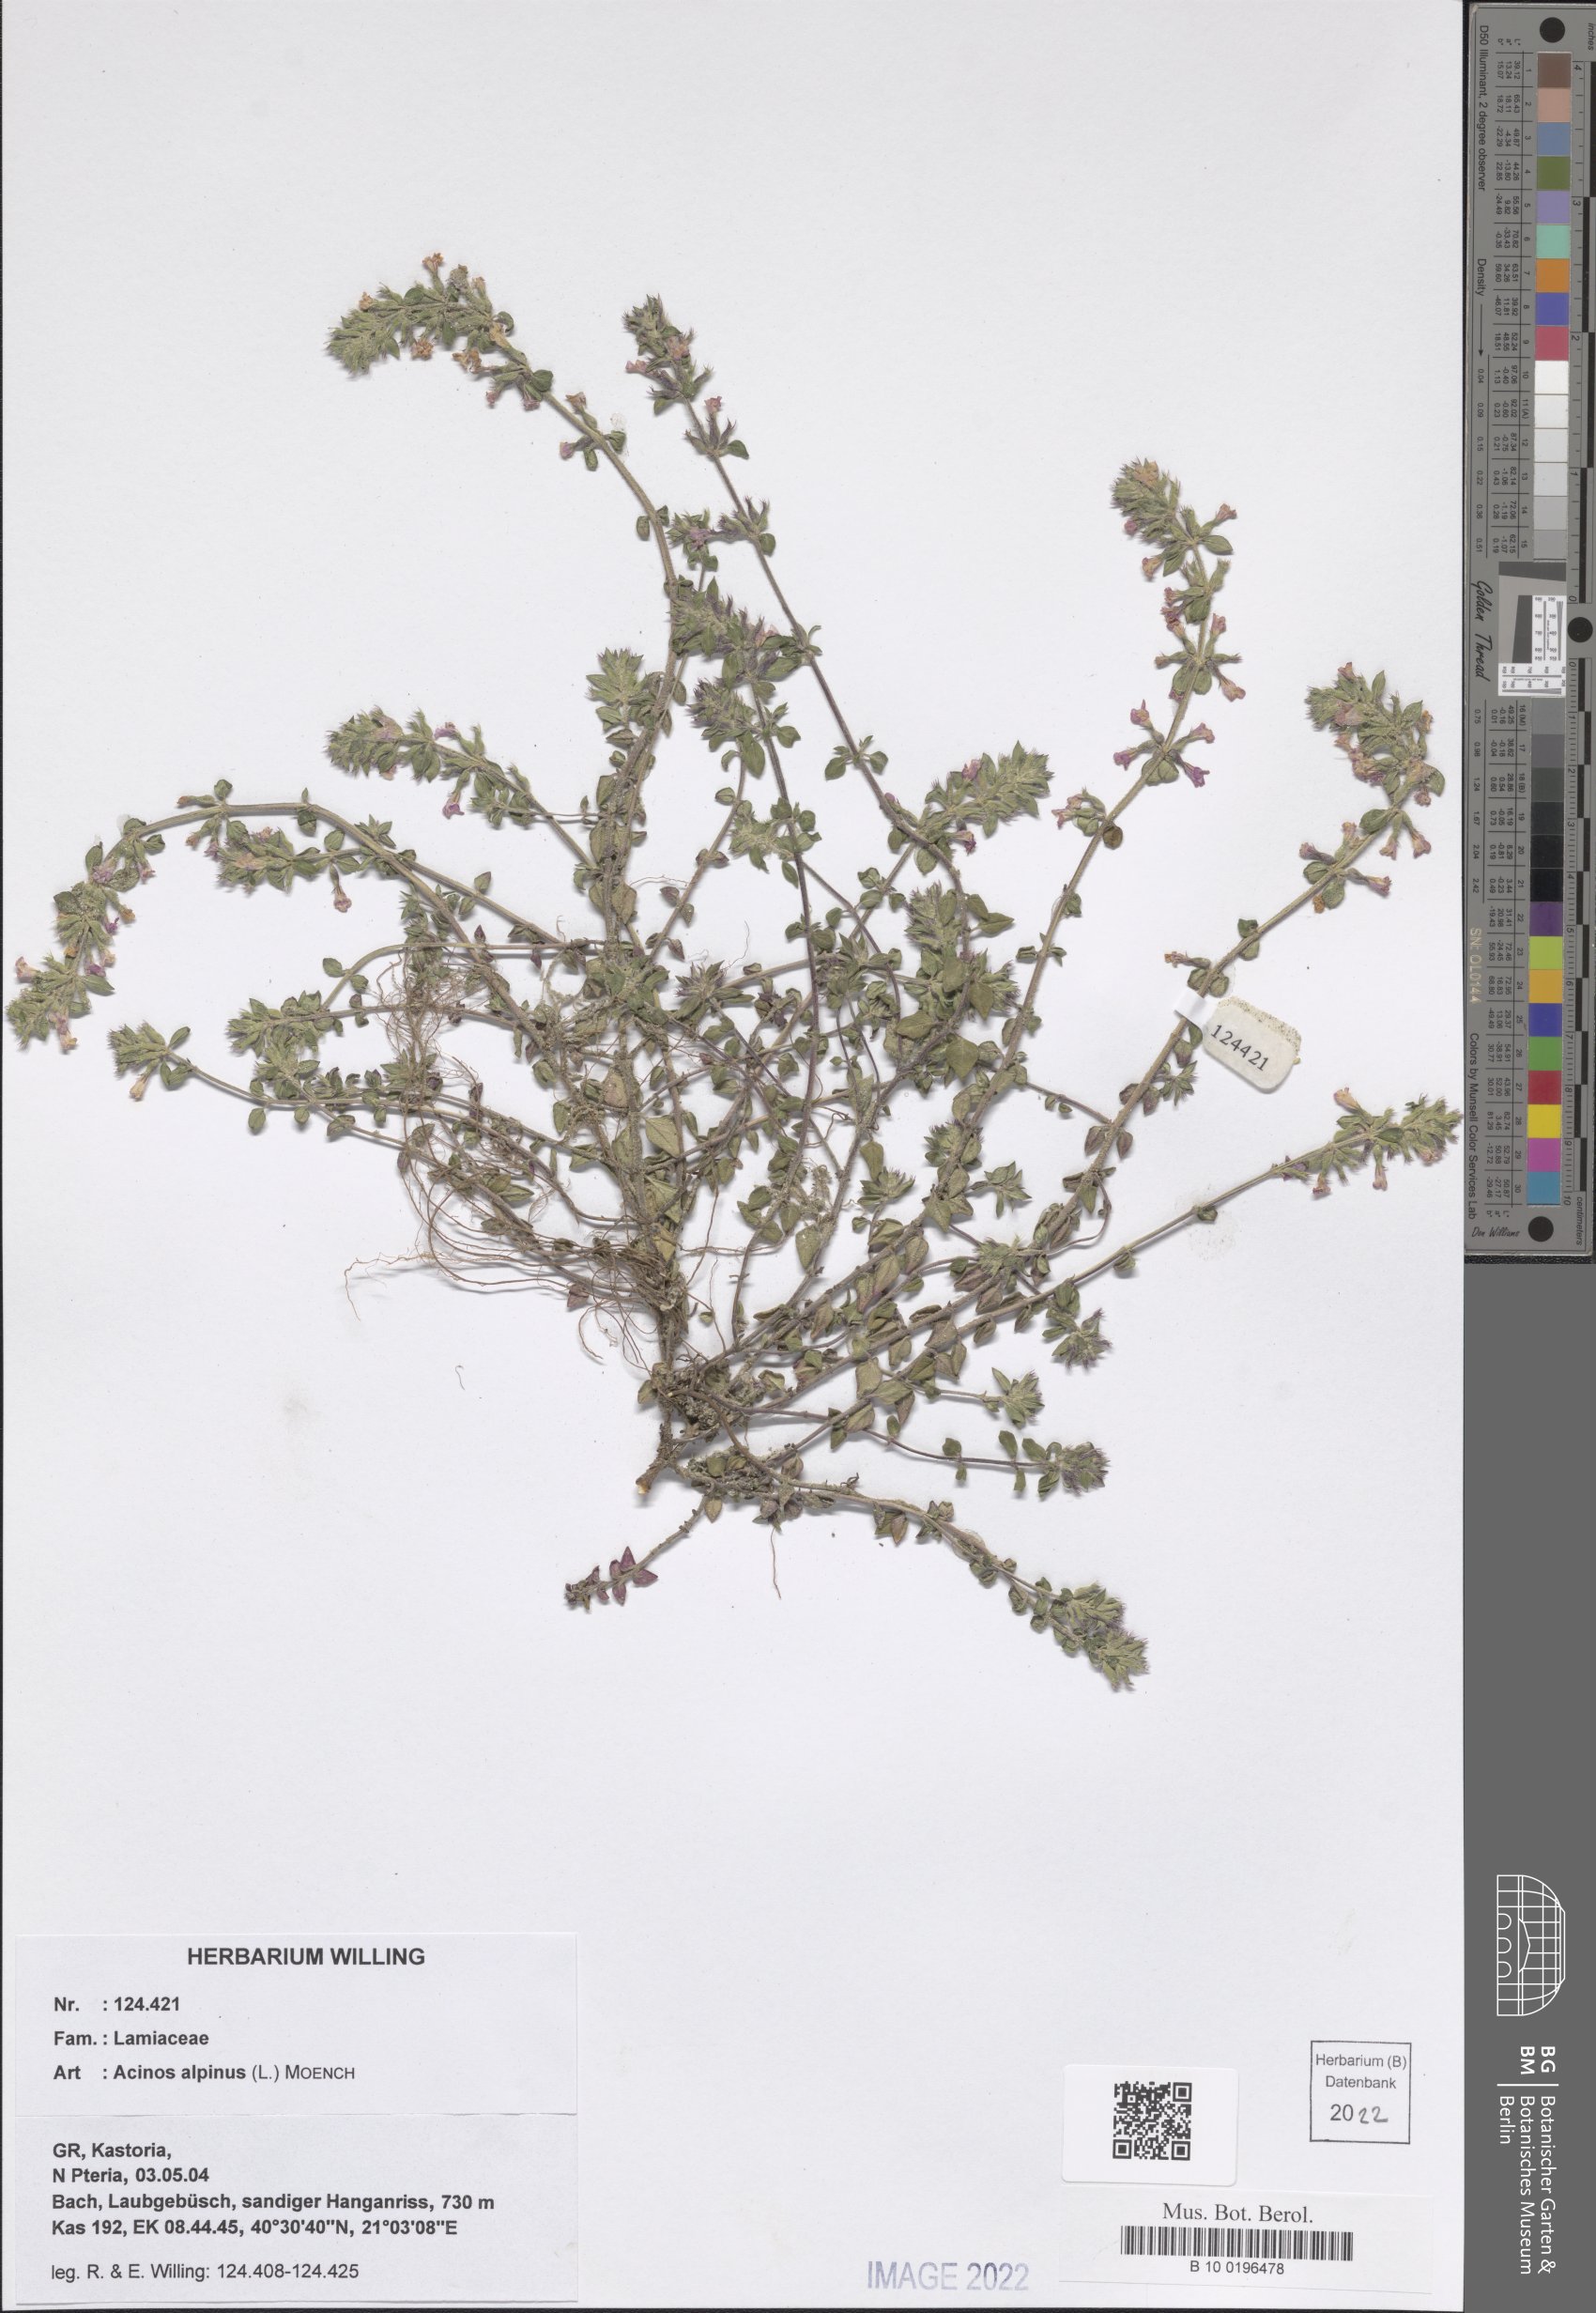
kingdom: Plantae
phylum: Tracheophyta
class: Magnoliopsida
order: Lamiales
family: Lamiaceae
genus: Clinopodium
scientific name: Clinopodium alpinum
